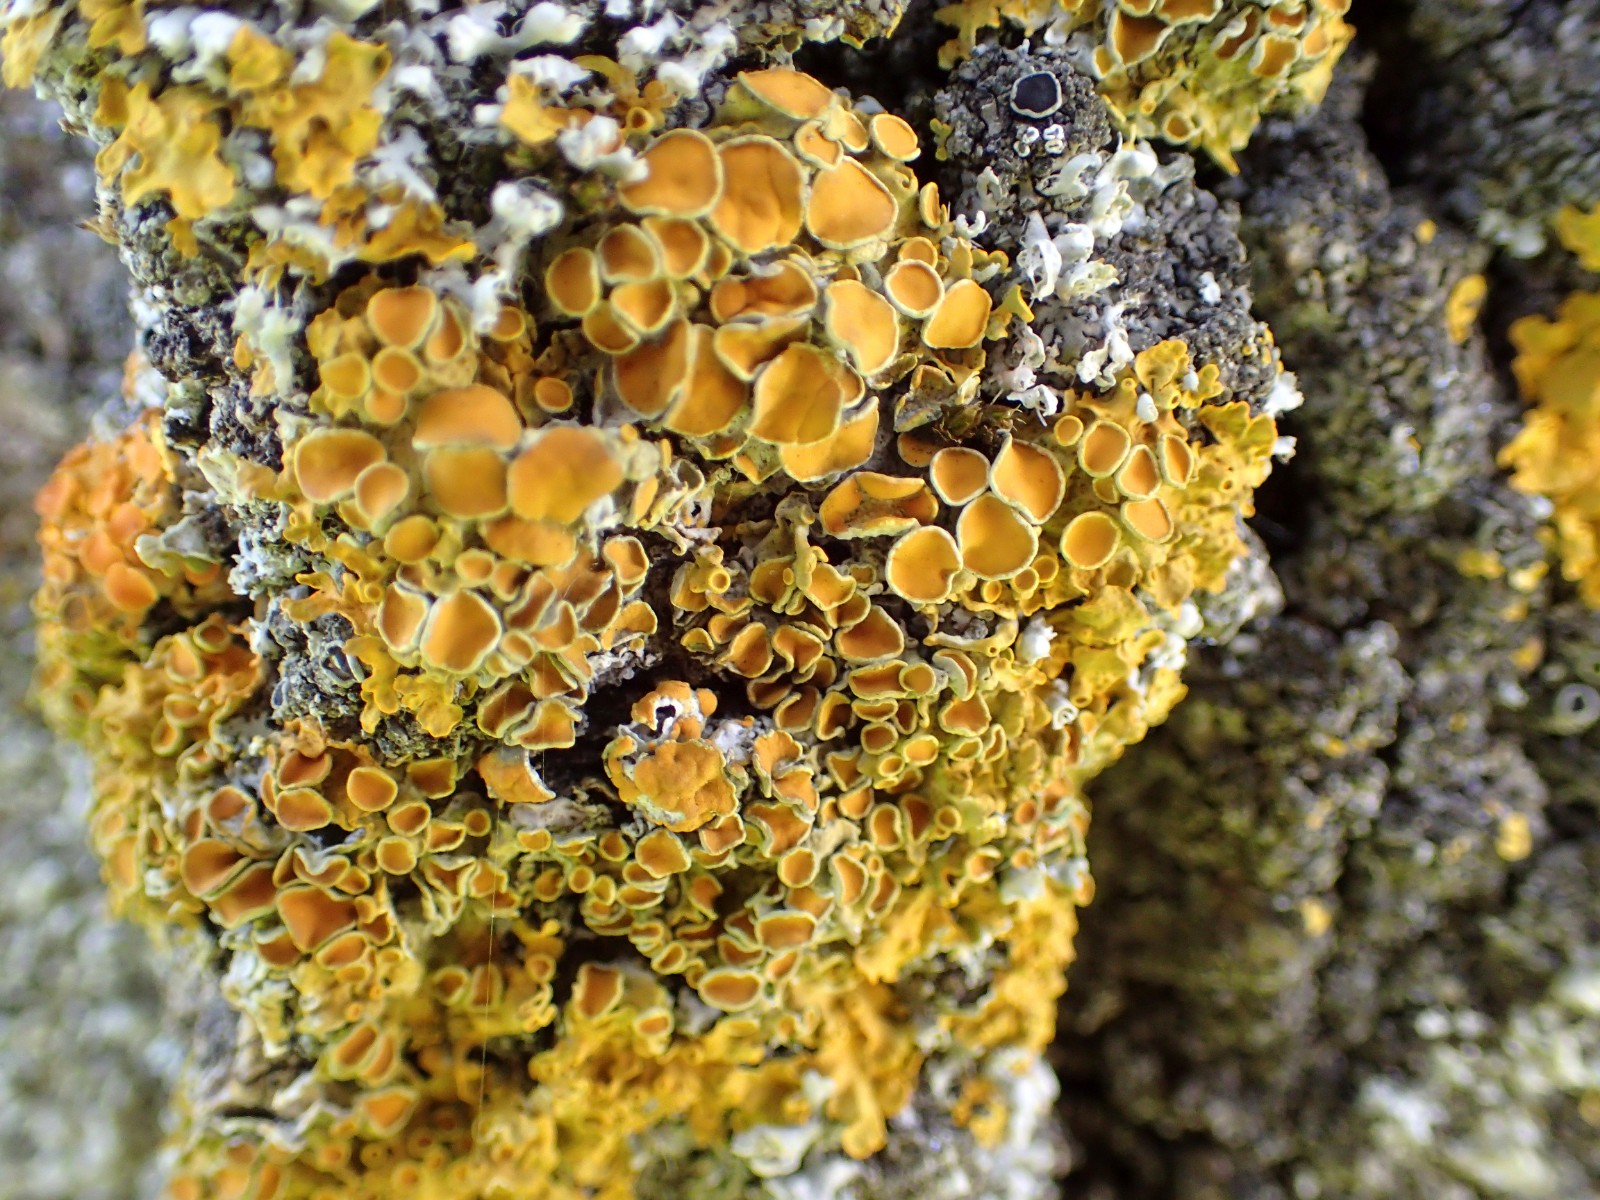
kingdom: Fungi
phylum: Ascomycota
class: Lecanoromycetes
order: Teloschistales
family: Teloschistaceae
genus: Xanthoria
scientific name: Xanthoria parietina
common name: almindelig væggelav
